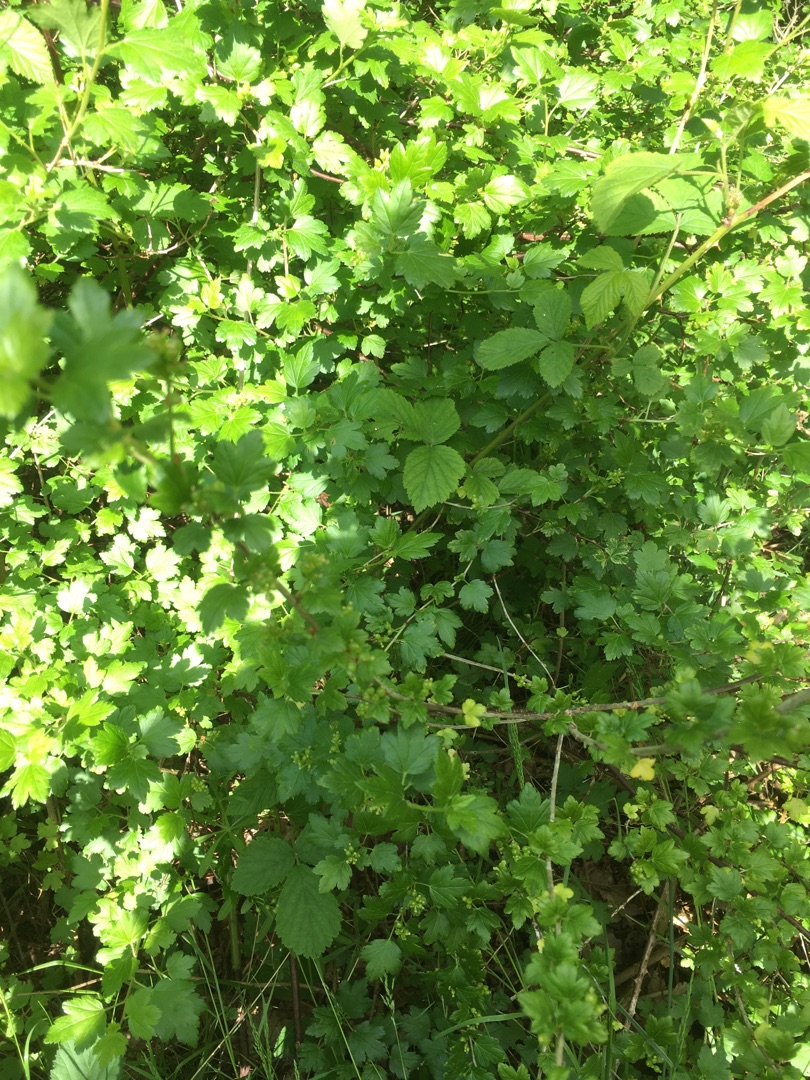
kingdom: Plantae
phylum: Tracheophyta
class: Magnoliopsida
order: Saxifragales
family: Grossulariaceae
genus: Ribes
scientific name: Ribes alpinum
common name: Fjeld-ribs
